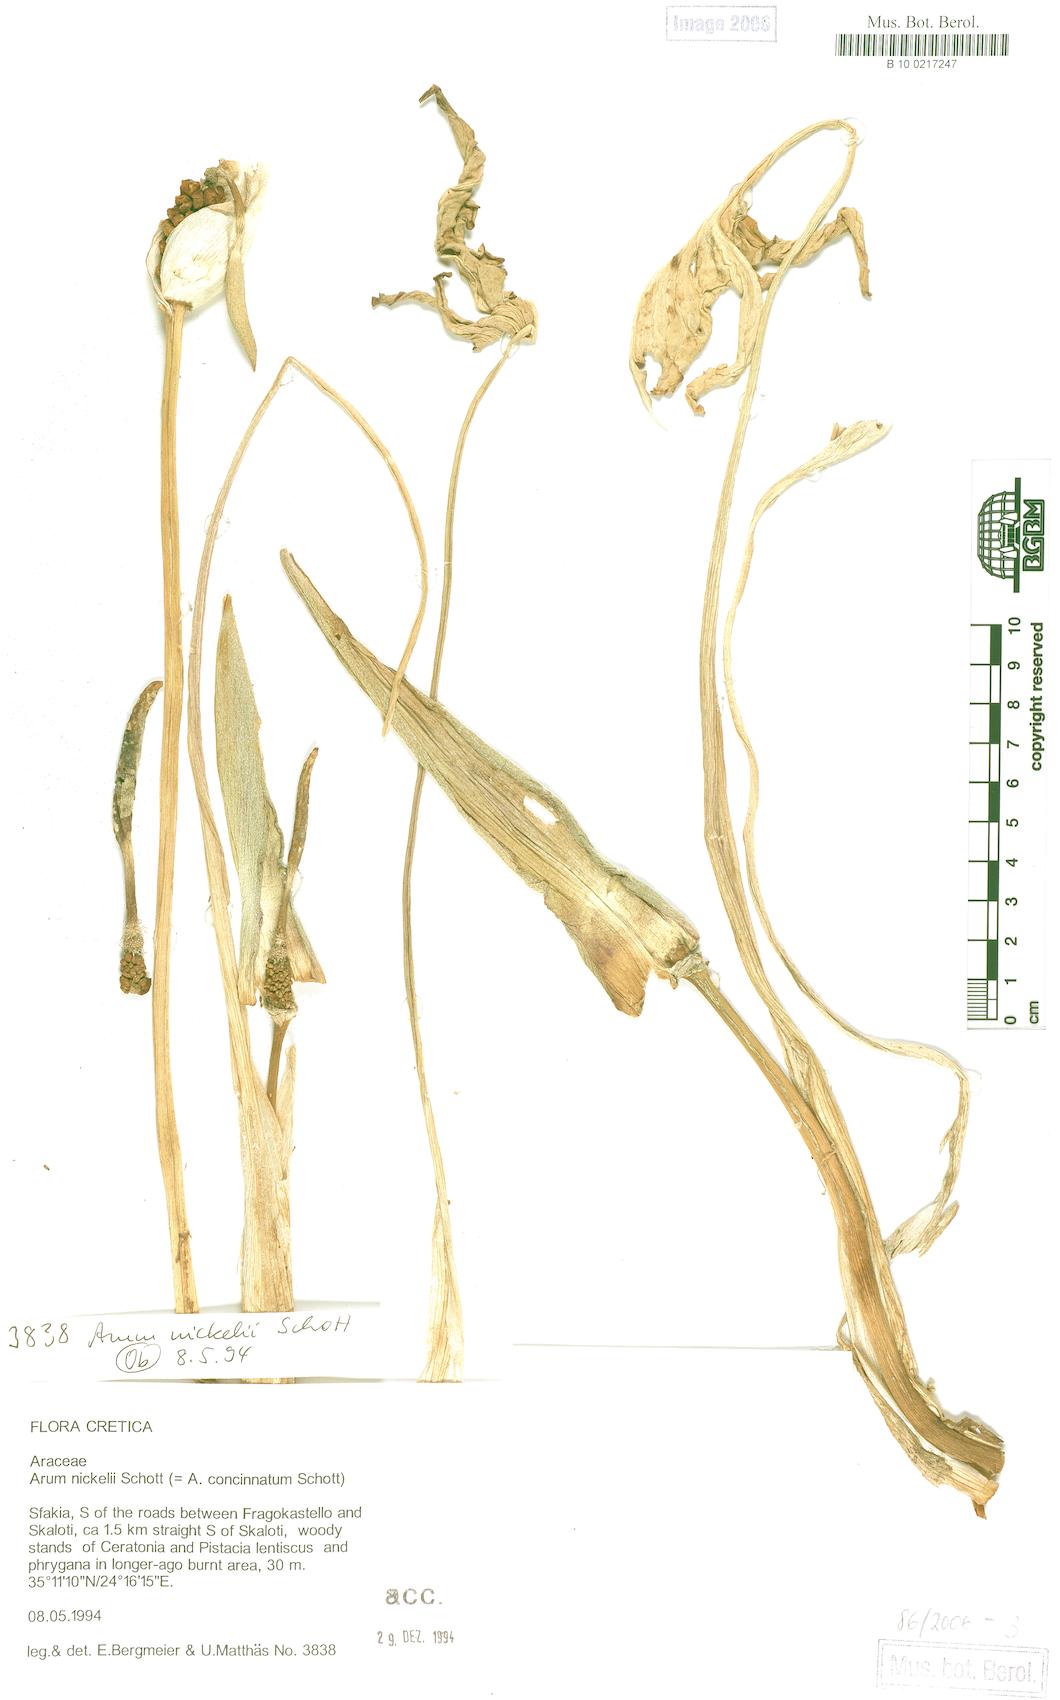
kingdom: Plantae
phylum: Tracheophyta
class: Liliopsida
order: Alismatales
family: Araceae
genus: Arum
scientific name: Arum concinnatum
